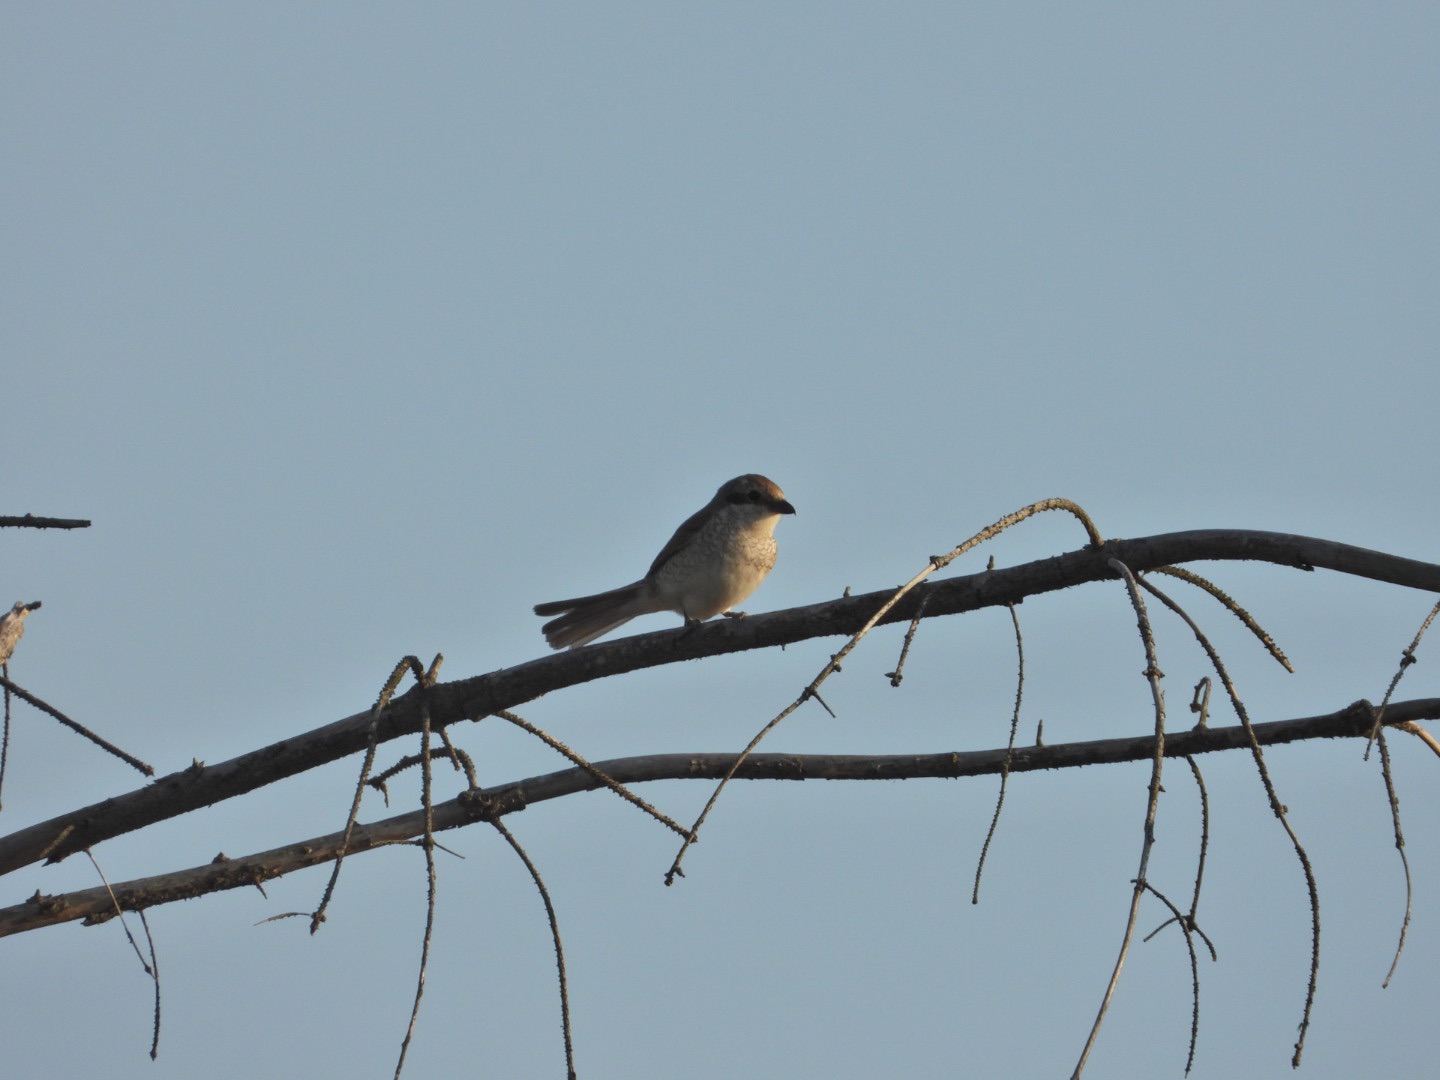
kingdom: Animalia
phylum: Chordata
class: Aves
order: Passeriformes
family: Laniidae
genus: Lanius
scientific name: Lanius collurio
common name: Rødrygget tornskade
